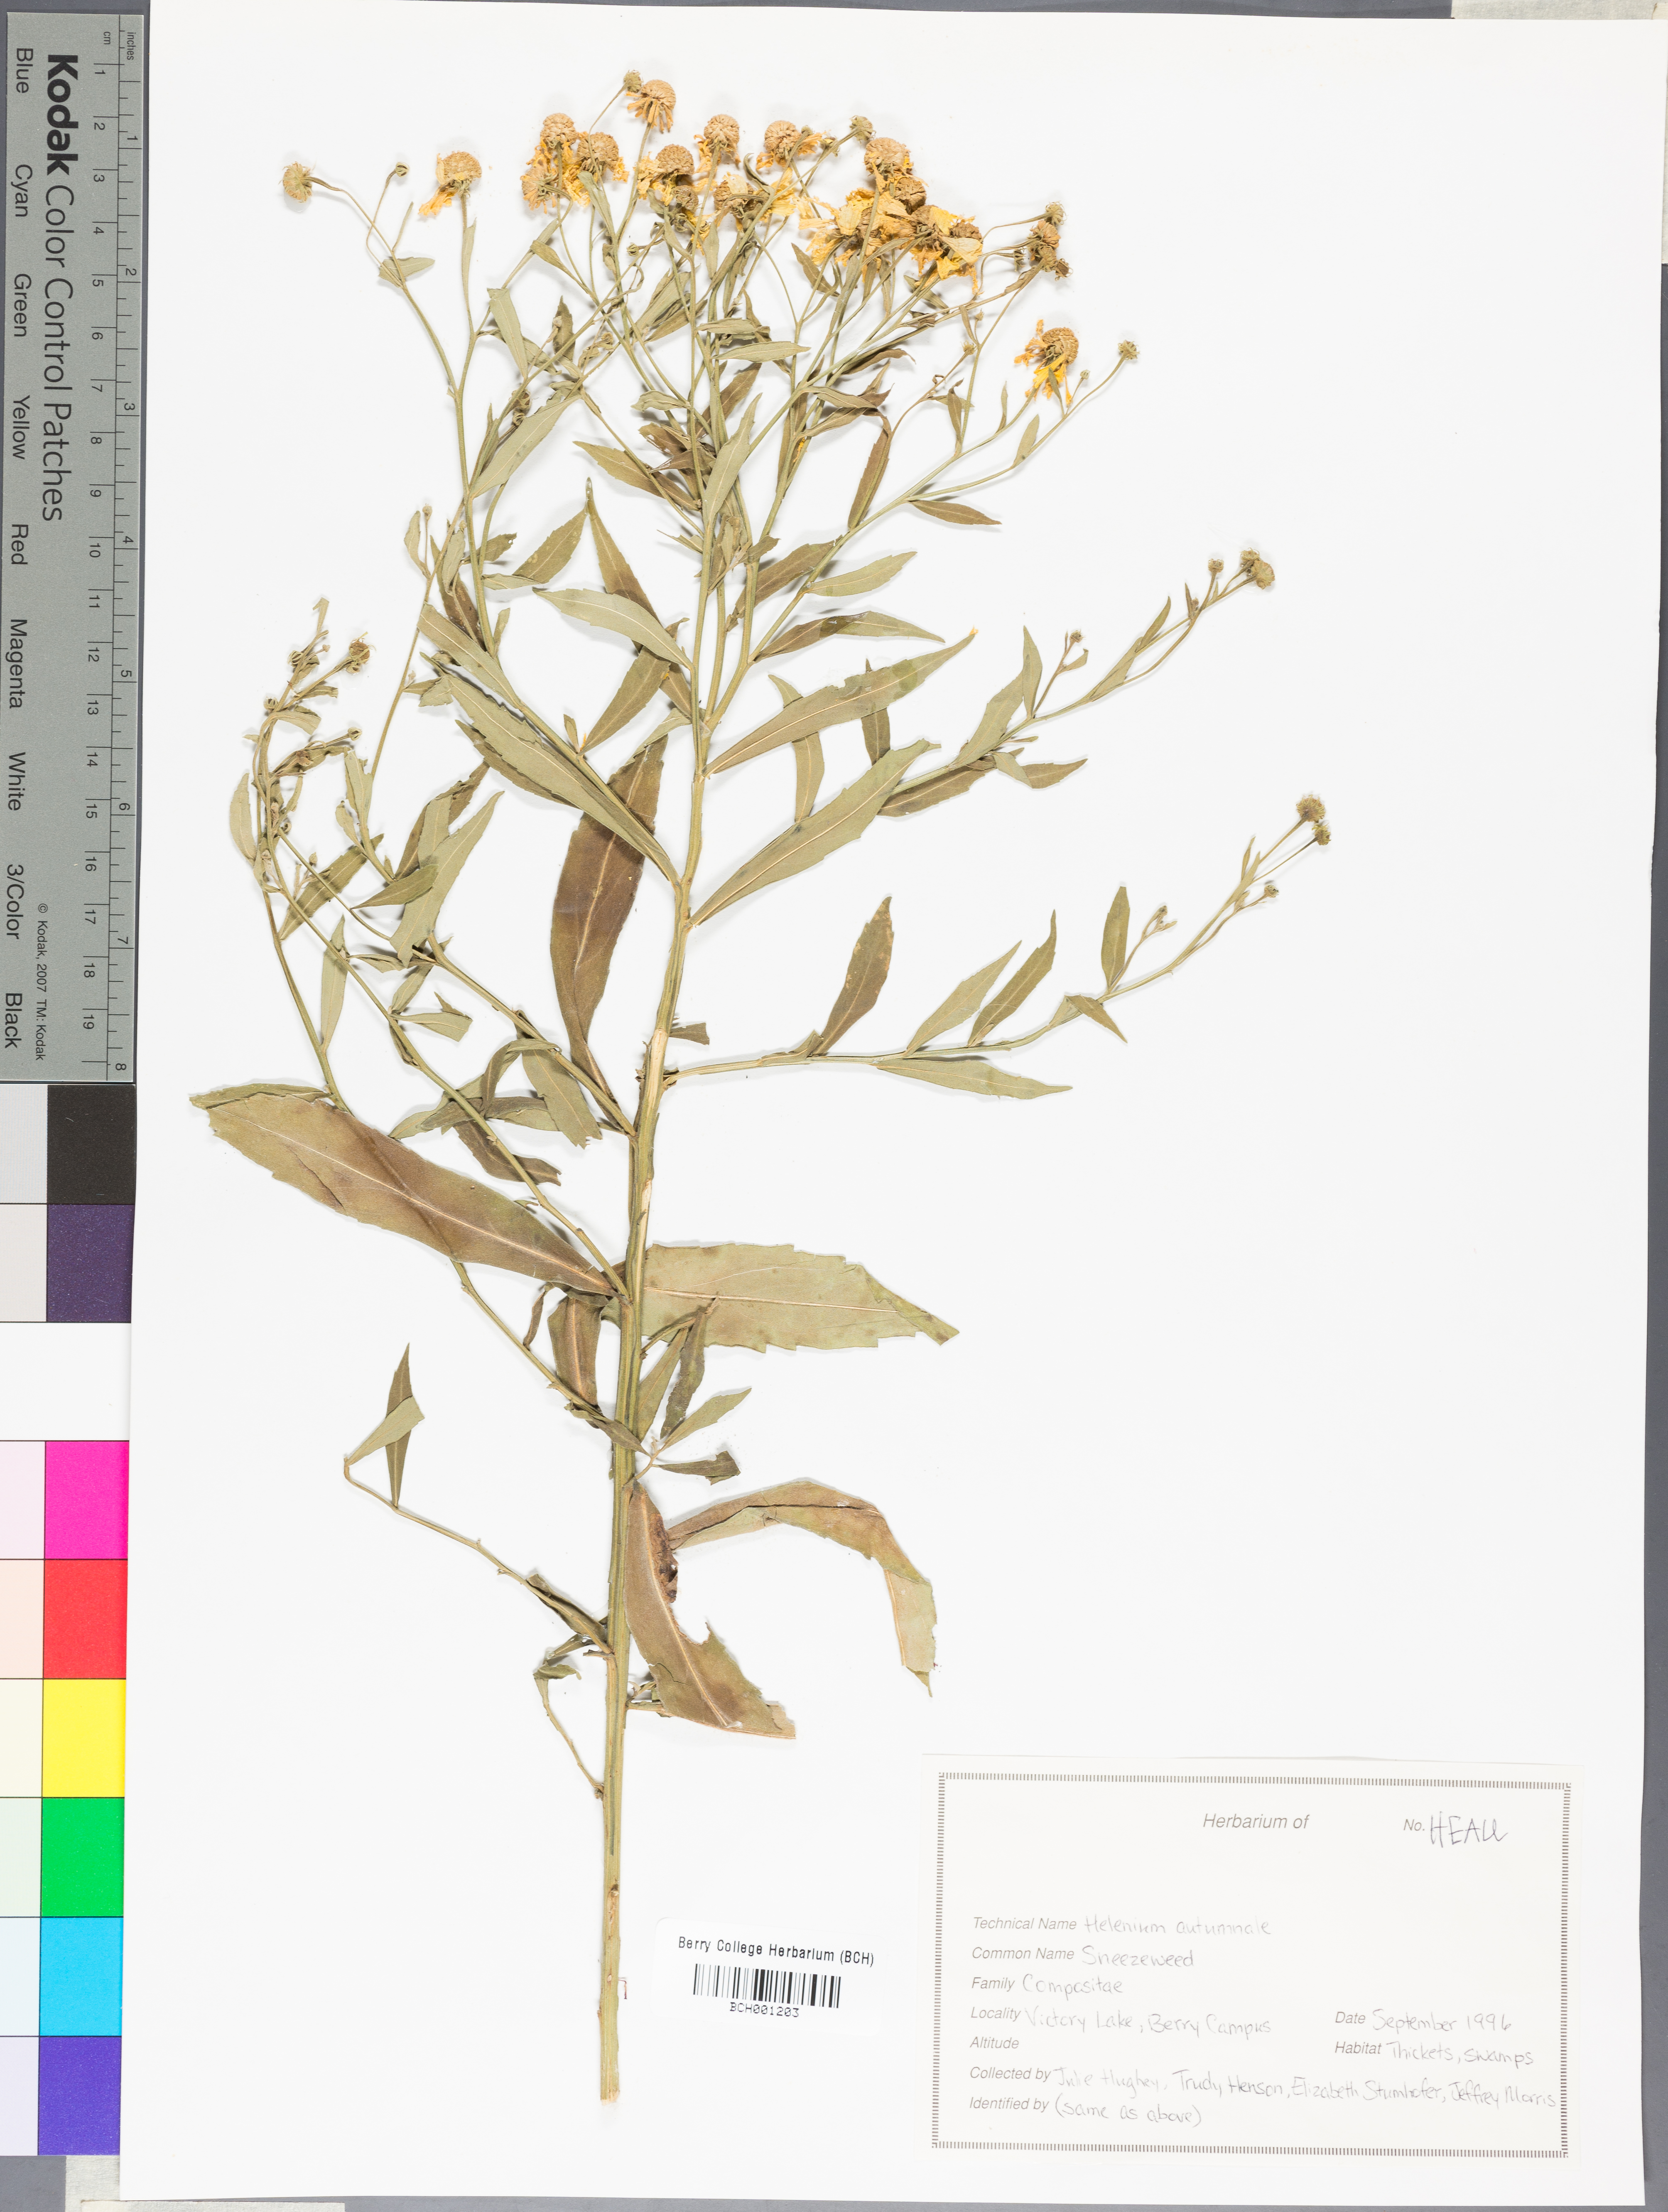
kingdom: Plantae
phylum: Tracheophyta
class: Magnoliopsida
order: Asterales
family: Asteraceae
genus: Helenium
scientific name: Helenium autumnale
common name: Sneezeweed
